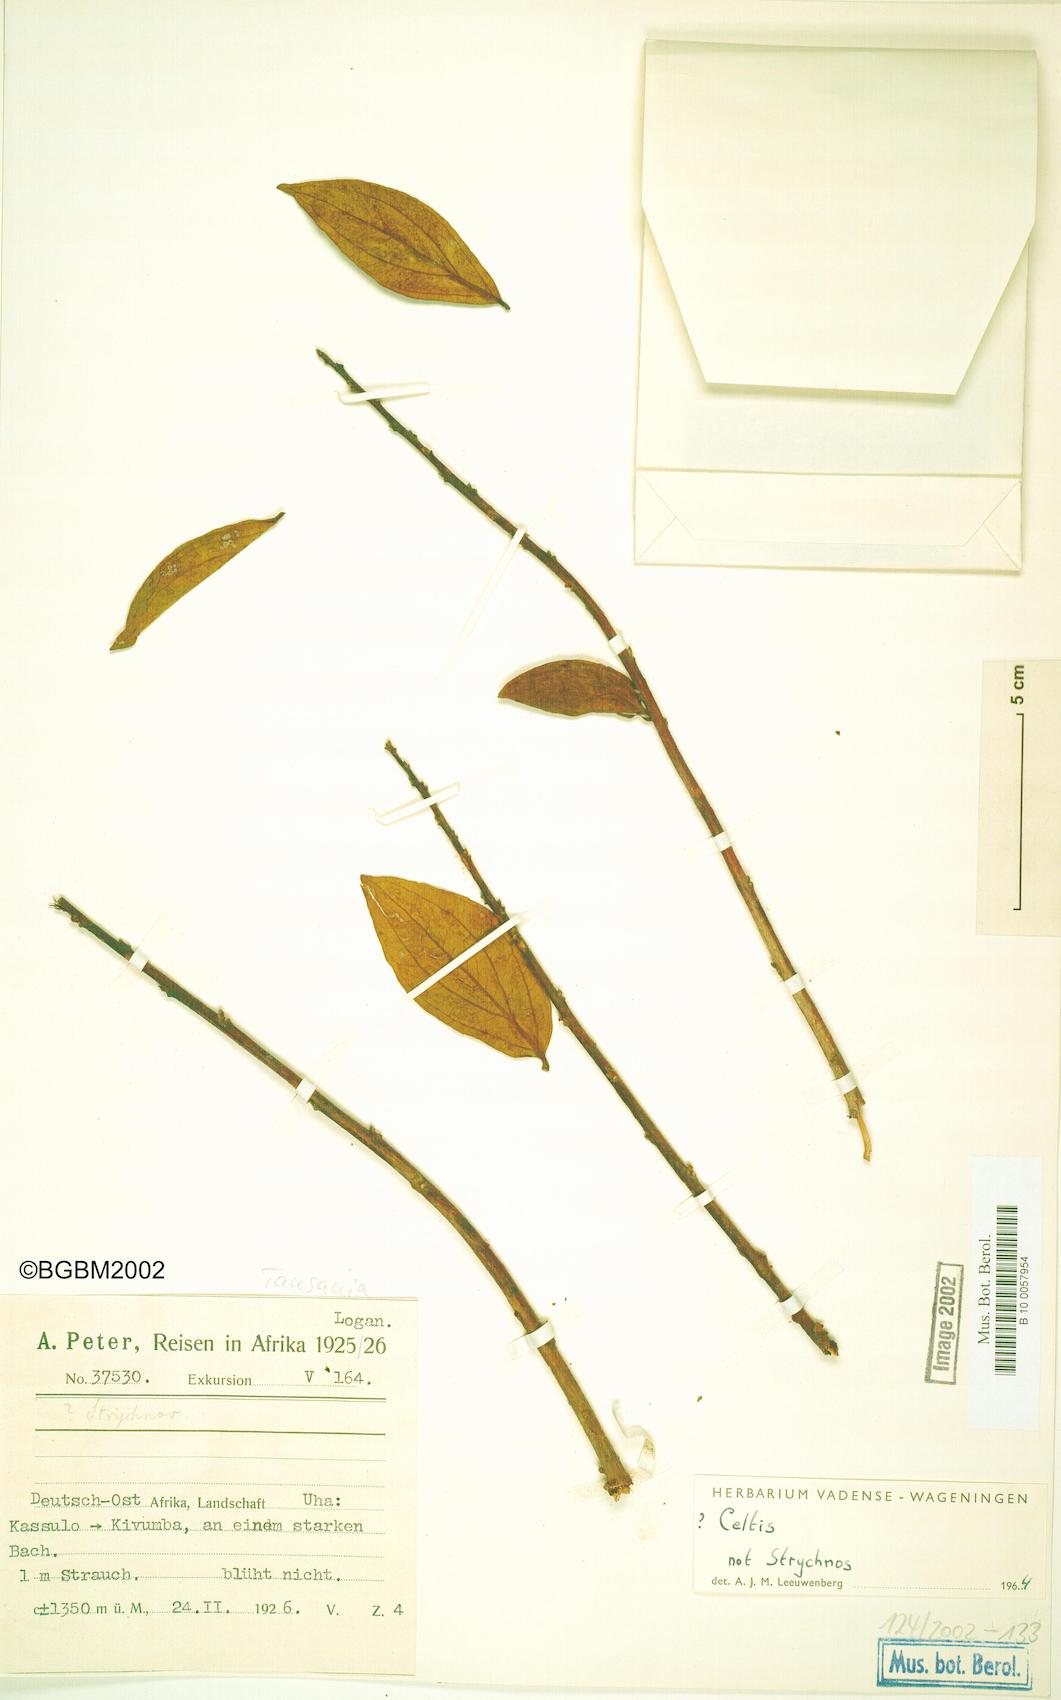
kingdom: Plantae
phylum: Tracheophyta
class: Magnoliopsida
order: Rosales
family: Cannabaceae
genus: Celtis
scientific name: Celtis
